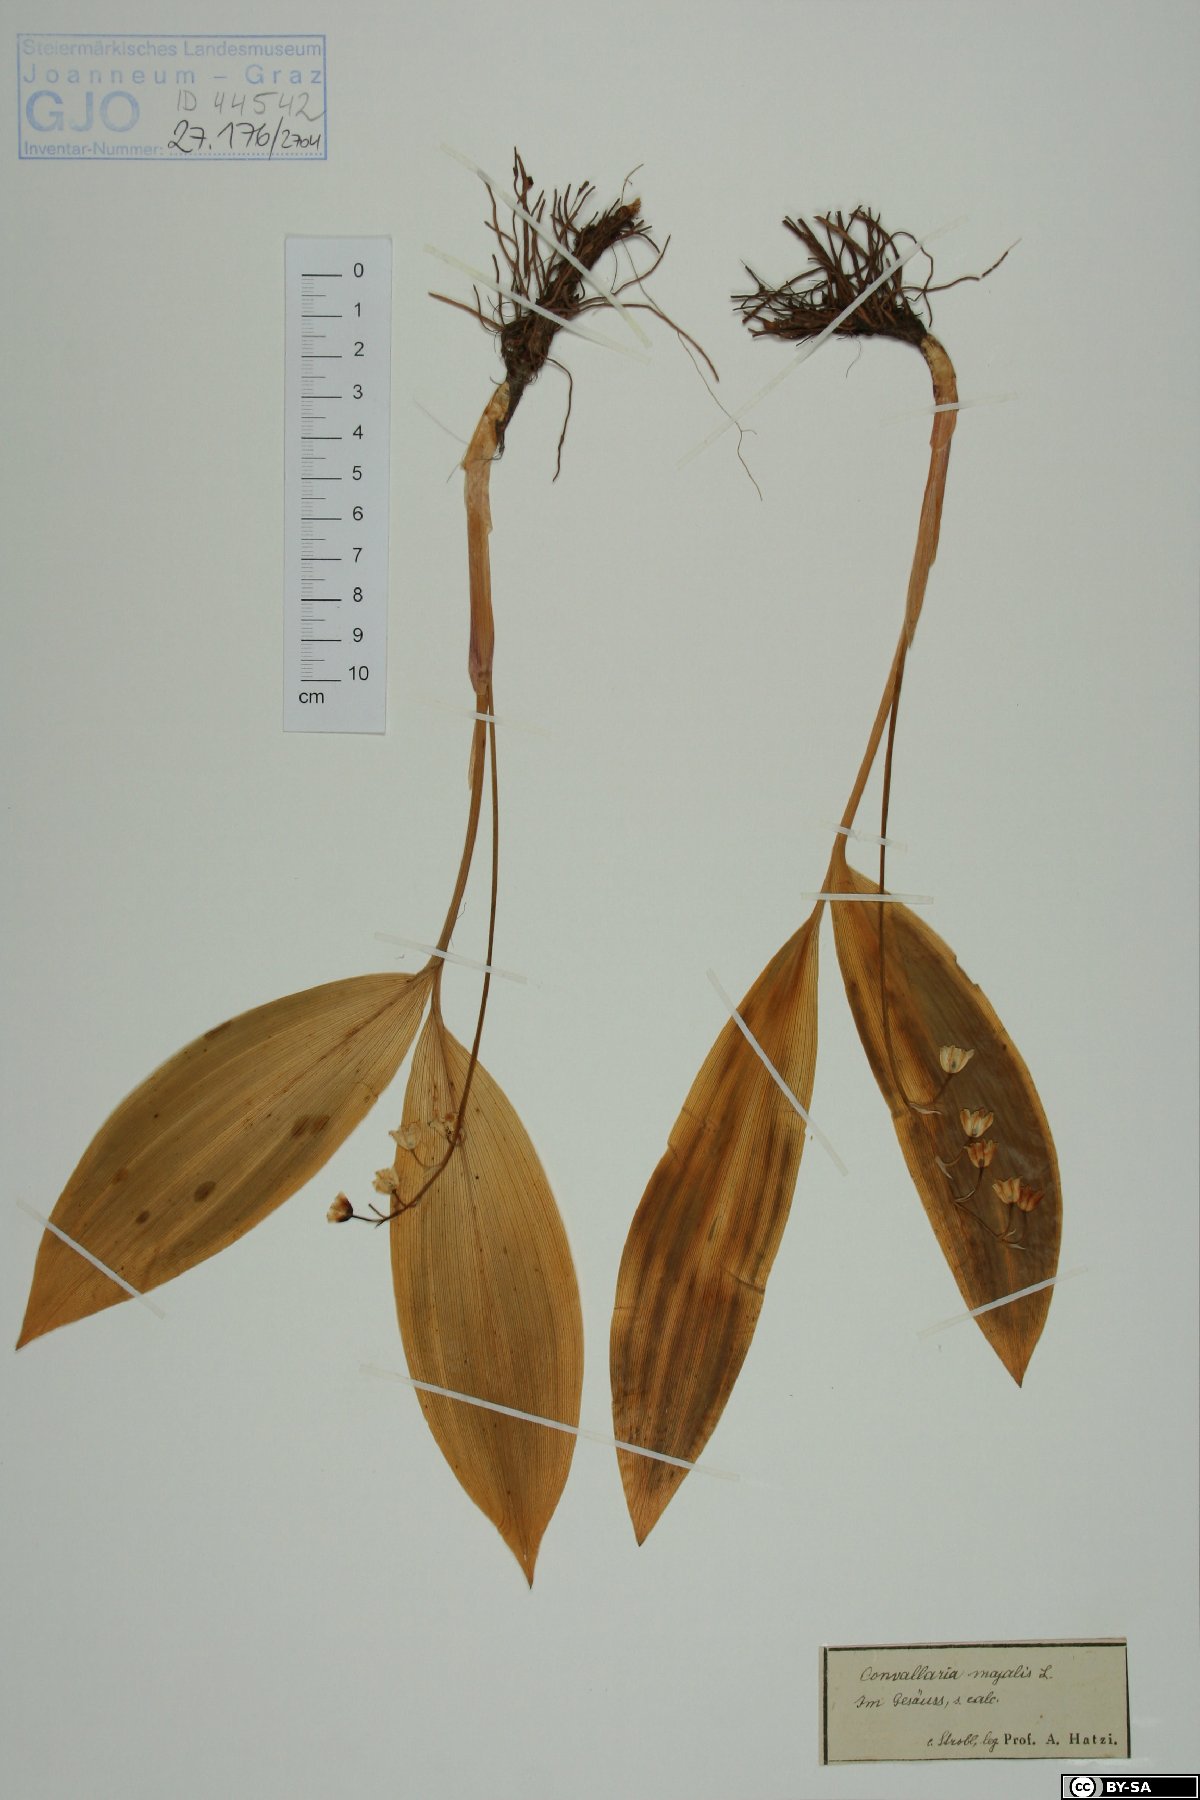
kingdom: Plantae
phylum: Tracheophyta
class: Liliopsida
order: Asparagales
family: Asparagaceae
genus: Convallaria
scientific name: Convallaria majalis
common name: Lily-of-the-valley
